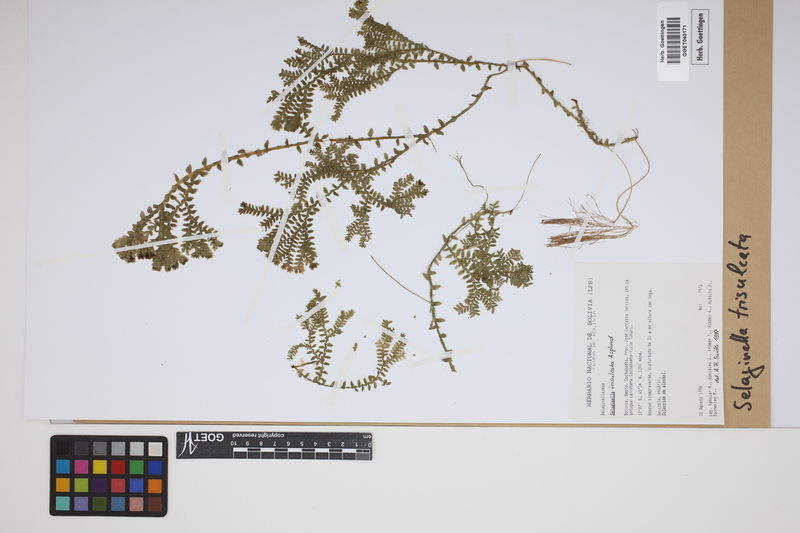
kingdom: Plantae
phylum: Tracheophyta
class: Lycopodiopsida
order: Selaginellales
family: Selaginellaceae
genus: Selaginella
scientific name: Selaginella trisulcata
